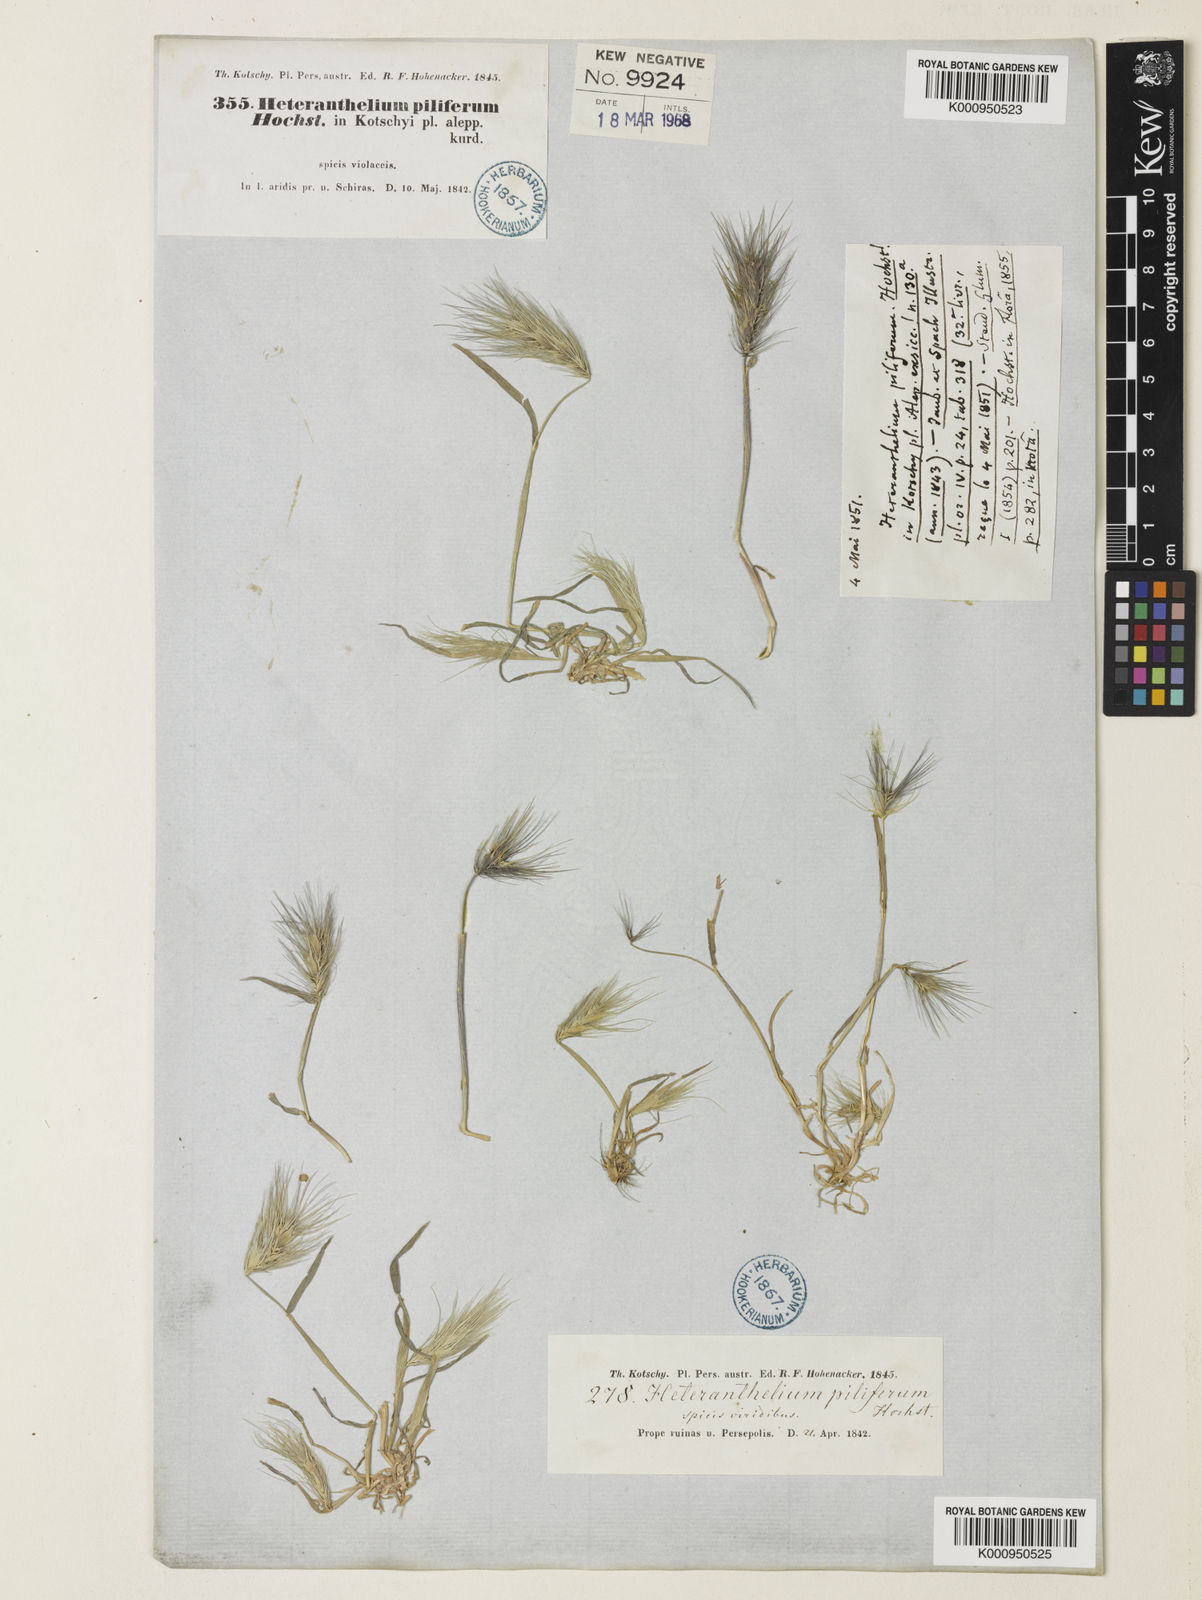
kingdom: Plantae
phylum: Tracheophyta
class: Liliopsida
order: Poales
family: Poaceae
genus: Heteranthelium
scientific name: Heteranthelium piliferum
